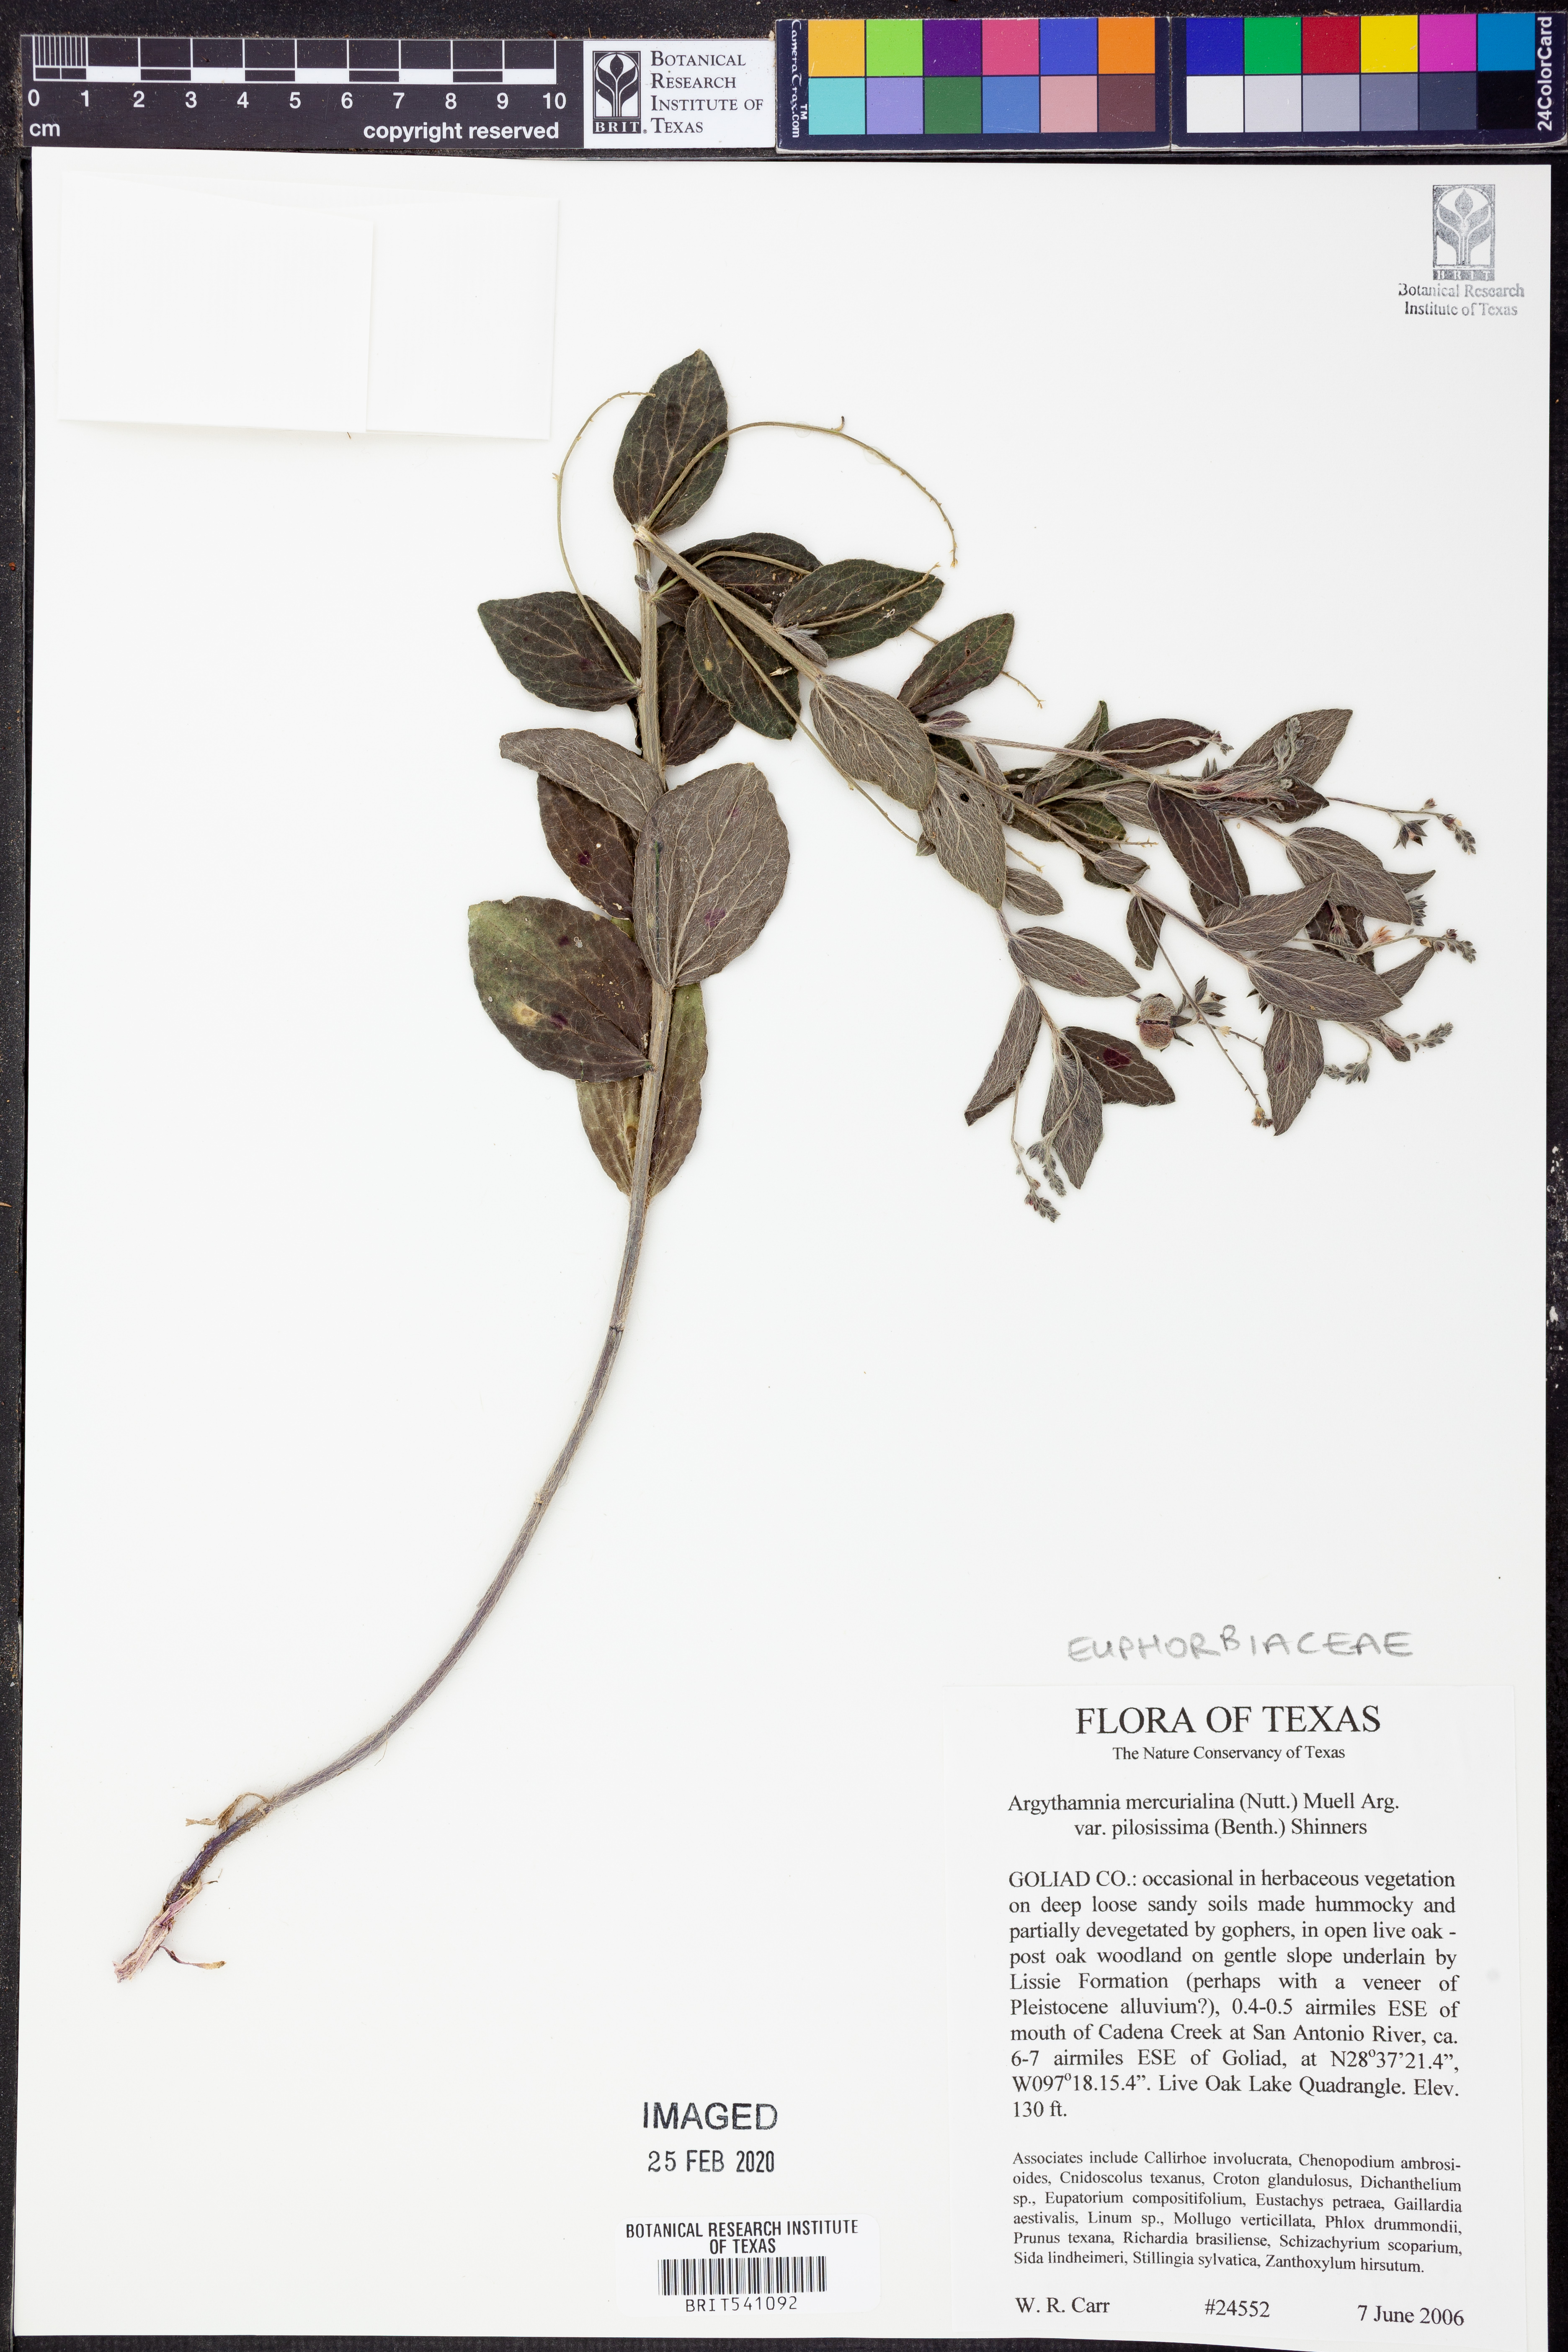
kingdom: Plantae
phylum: Tracheophyta
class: Magnoliopsida
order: Malpighiales
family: Euphorbiaceae
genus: Ditaxis
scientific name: Ditaxis pilosissima
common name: Tall silverbush
